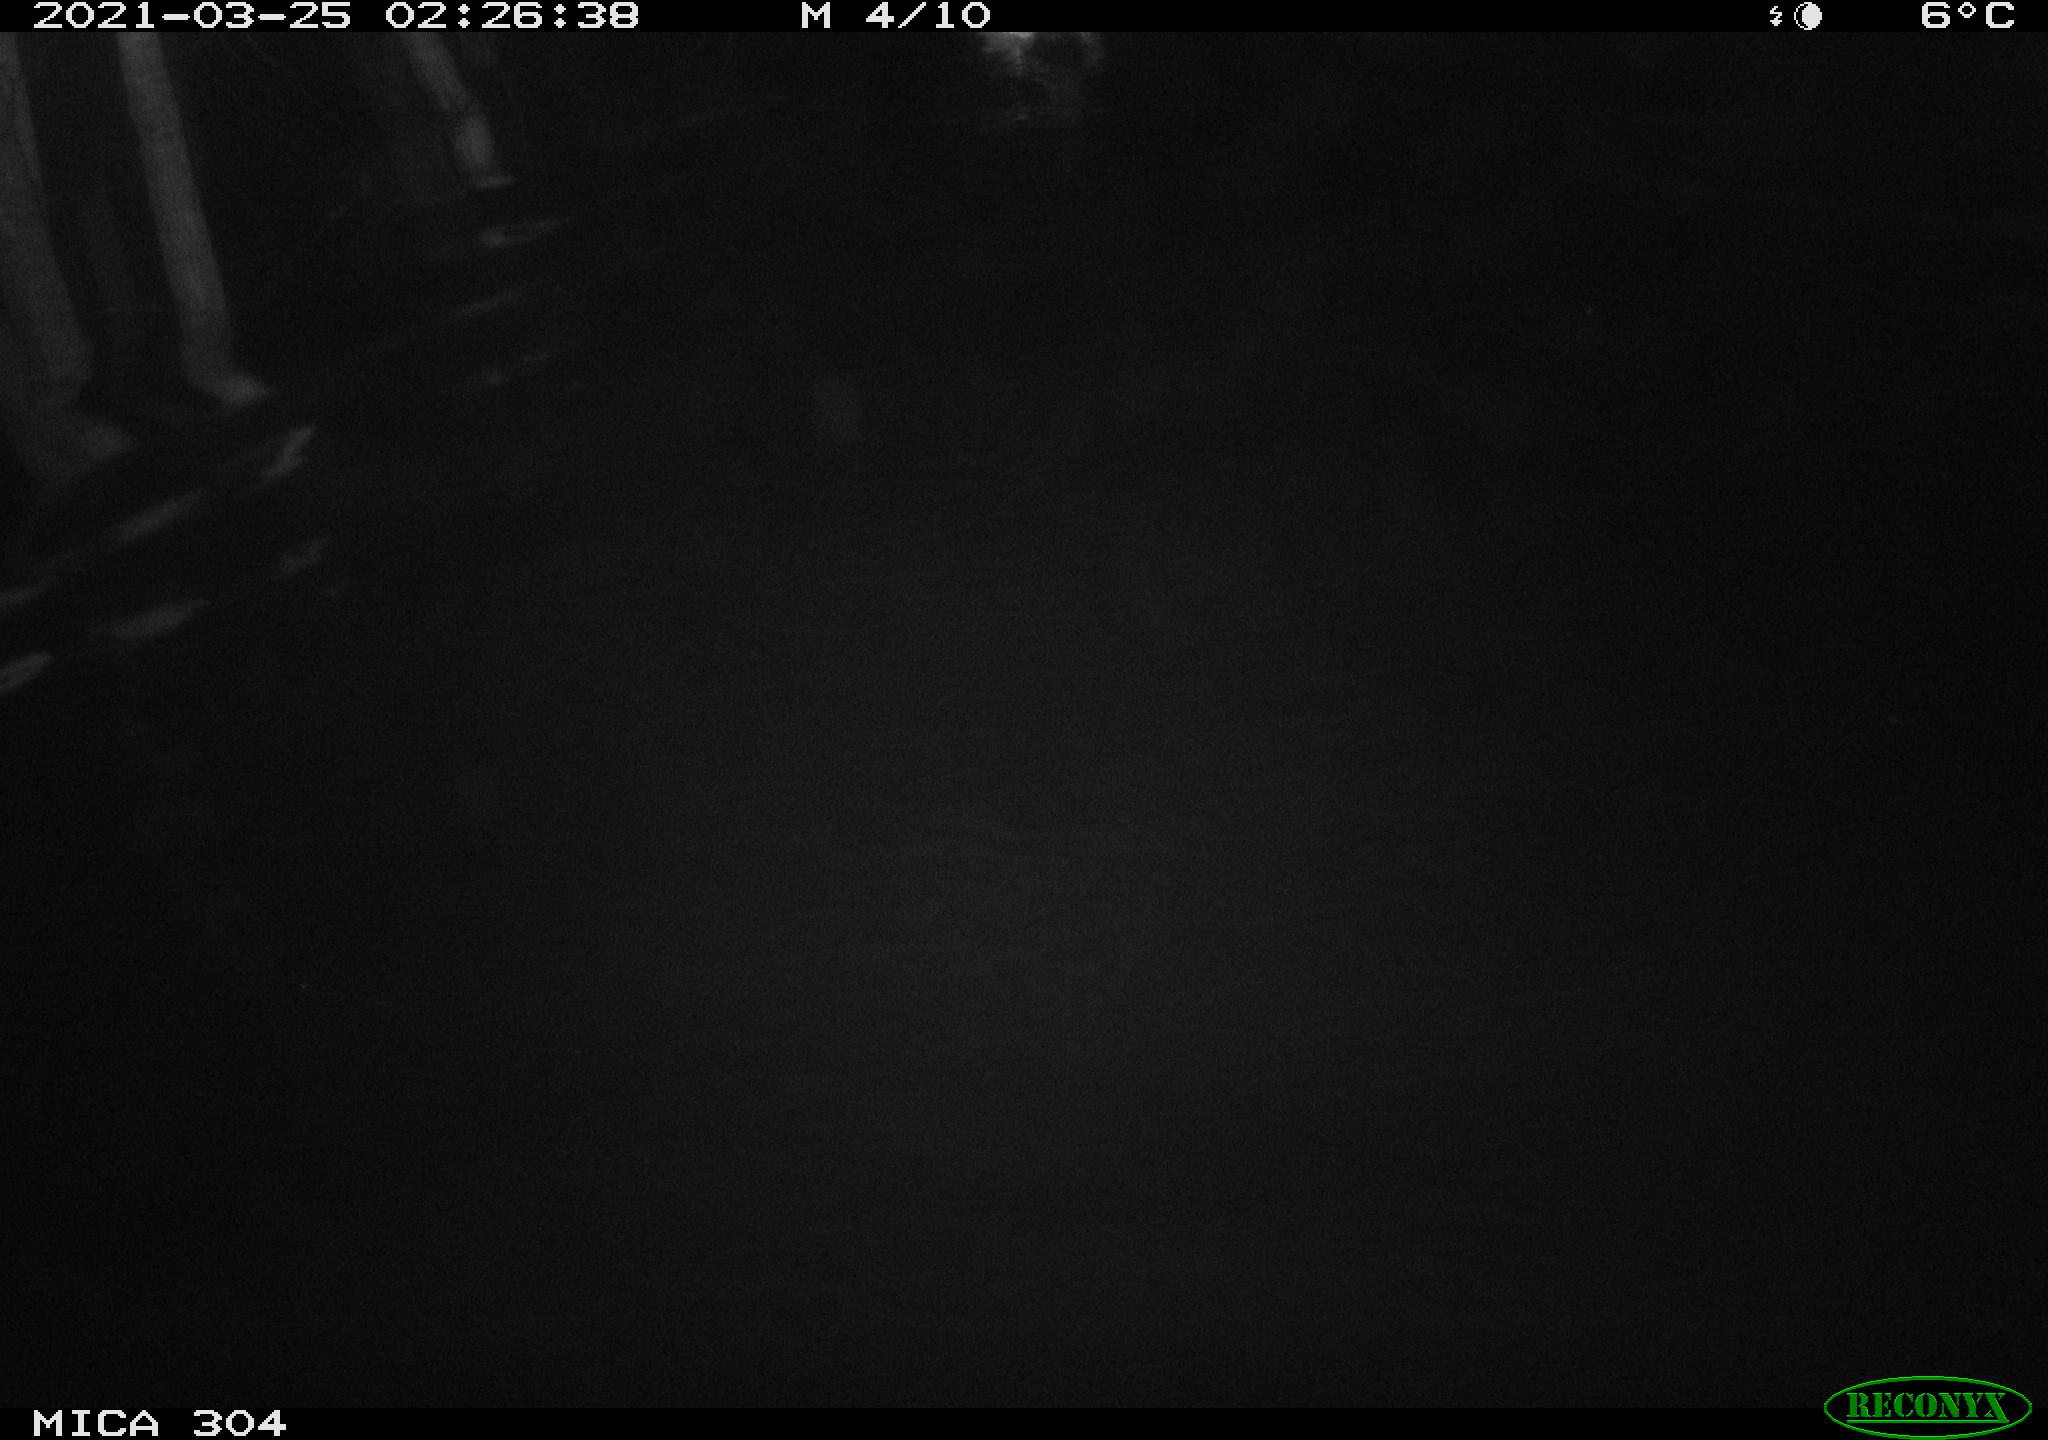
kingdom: Animalia
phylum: Chordata
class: Aves
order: Anseriformes
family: Anatidae
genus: Anas
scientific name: Anas platyrhynchos
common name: Mallard
